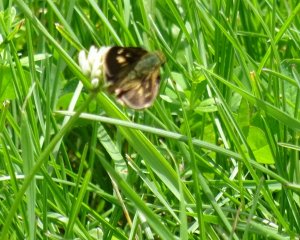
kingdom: Animalia
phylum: Arthropoda
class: Insecta
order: Lepidoptera
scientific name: Lepidoptera
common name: Butterflies
